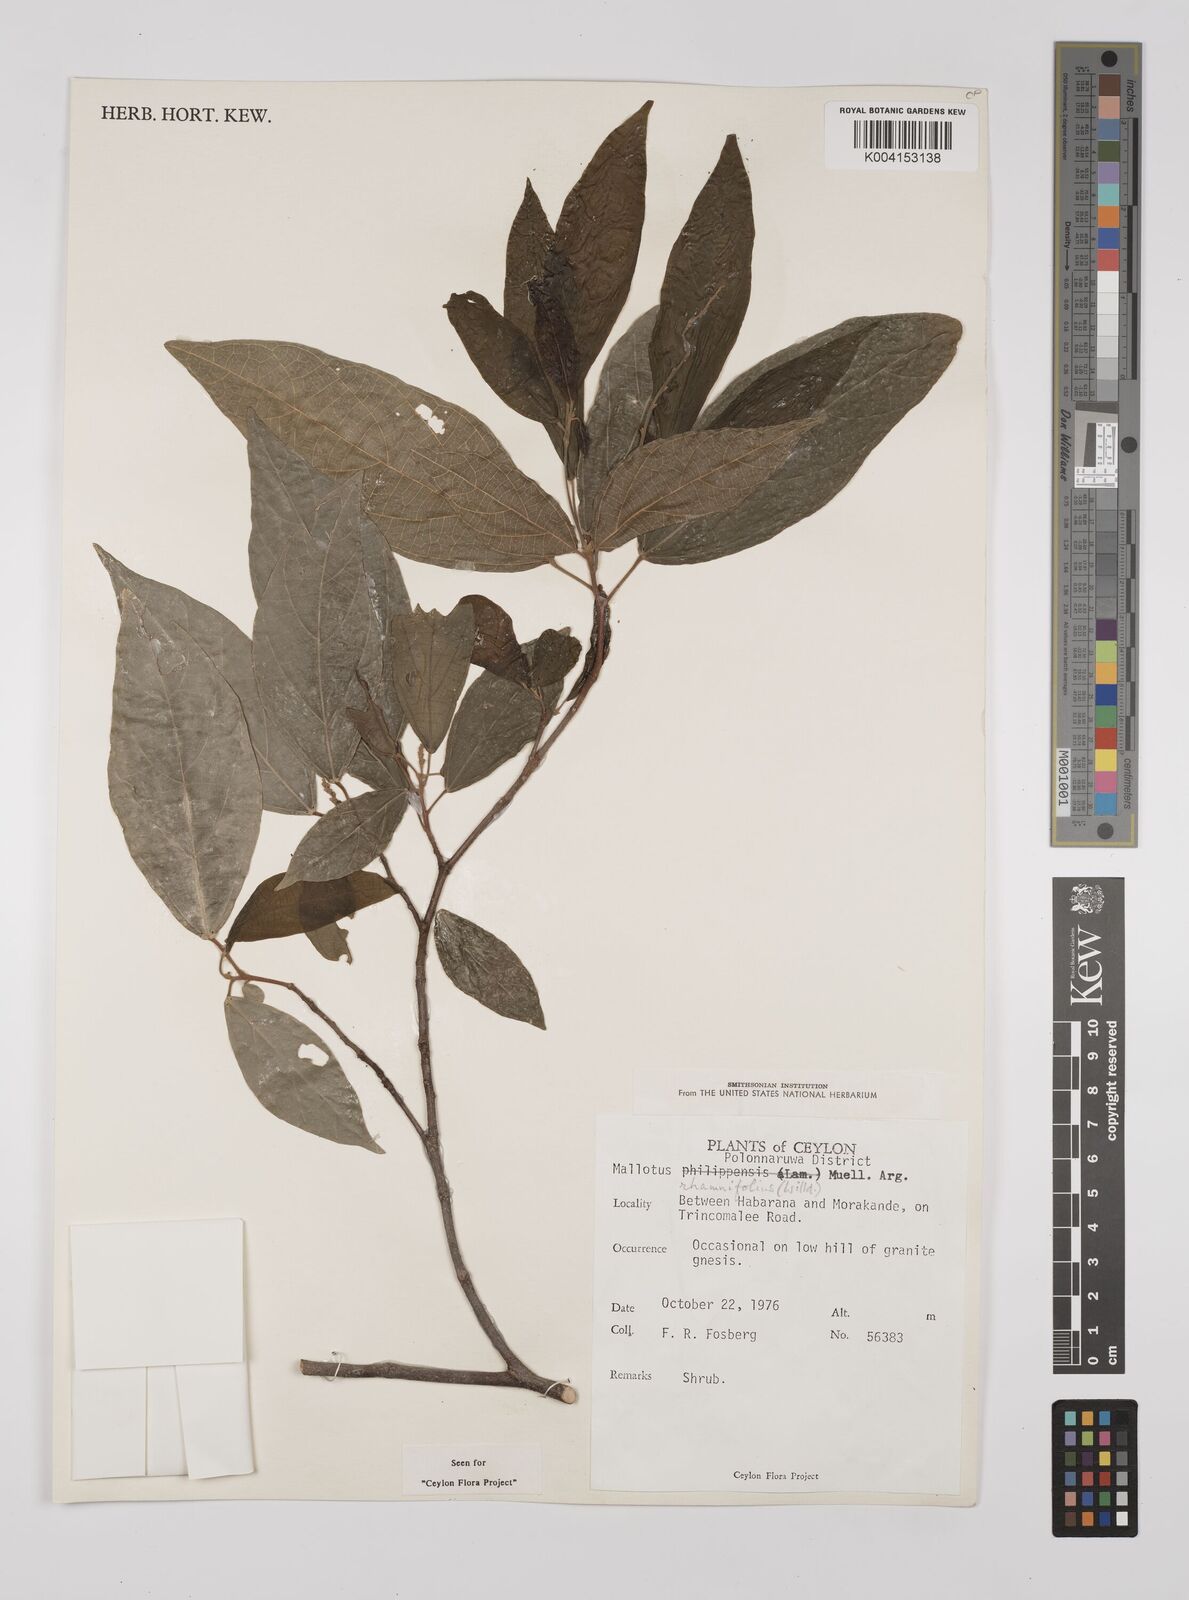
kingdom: Plantae
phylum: Tracheophyta
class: Magnoliopsida
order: Malpighiales
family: Euphorbiaceae
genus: Mallotus
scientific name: Mallotus rhamnifolius
